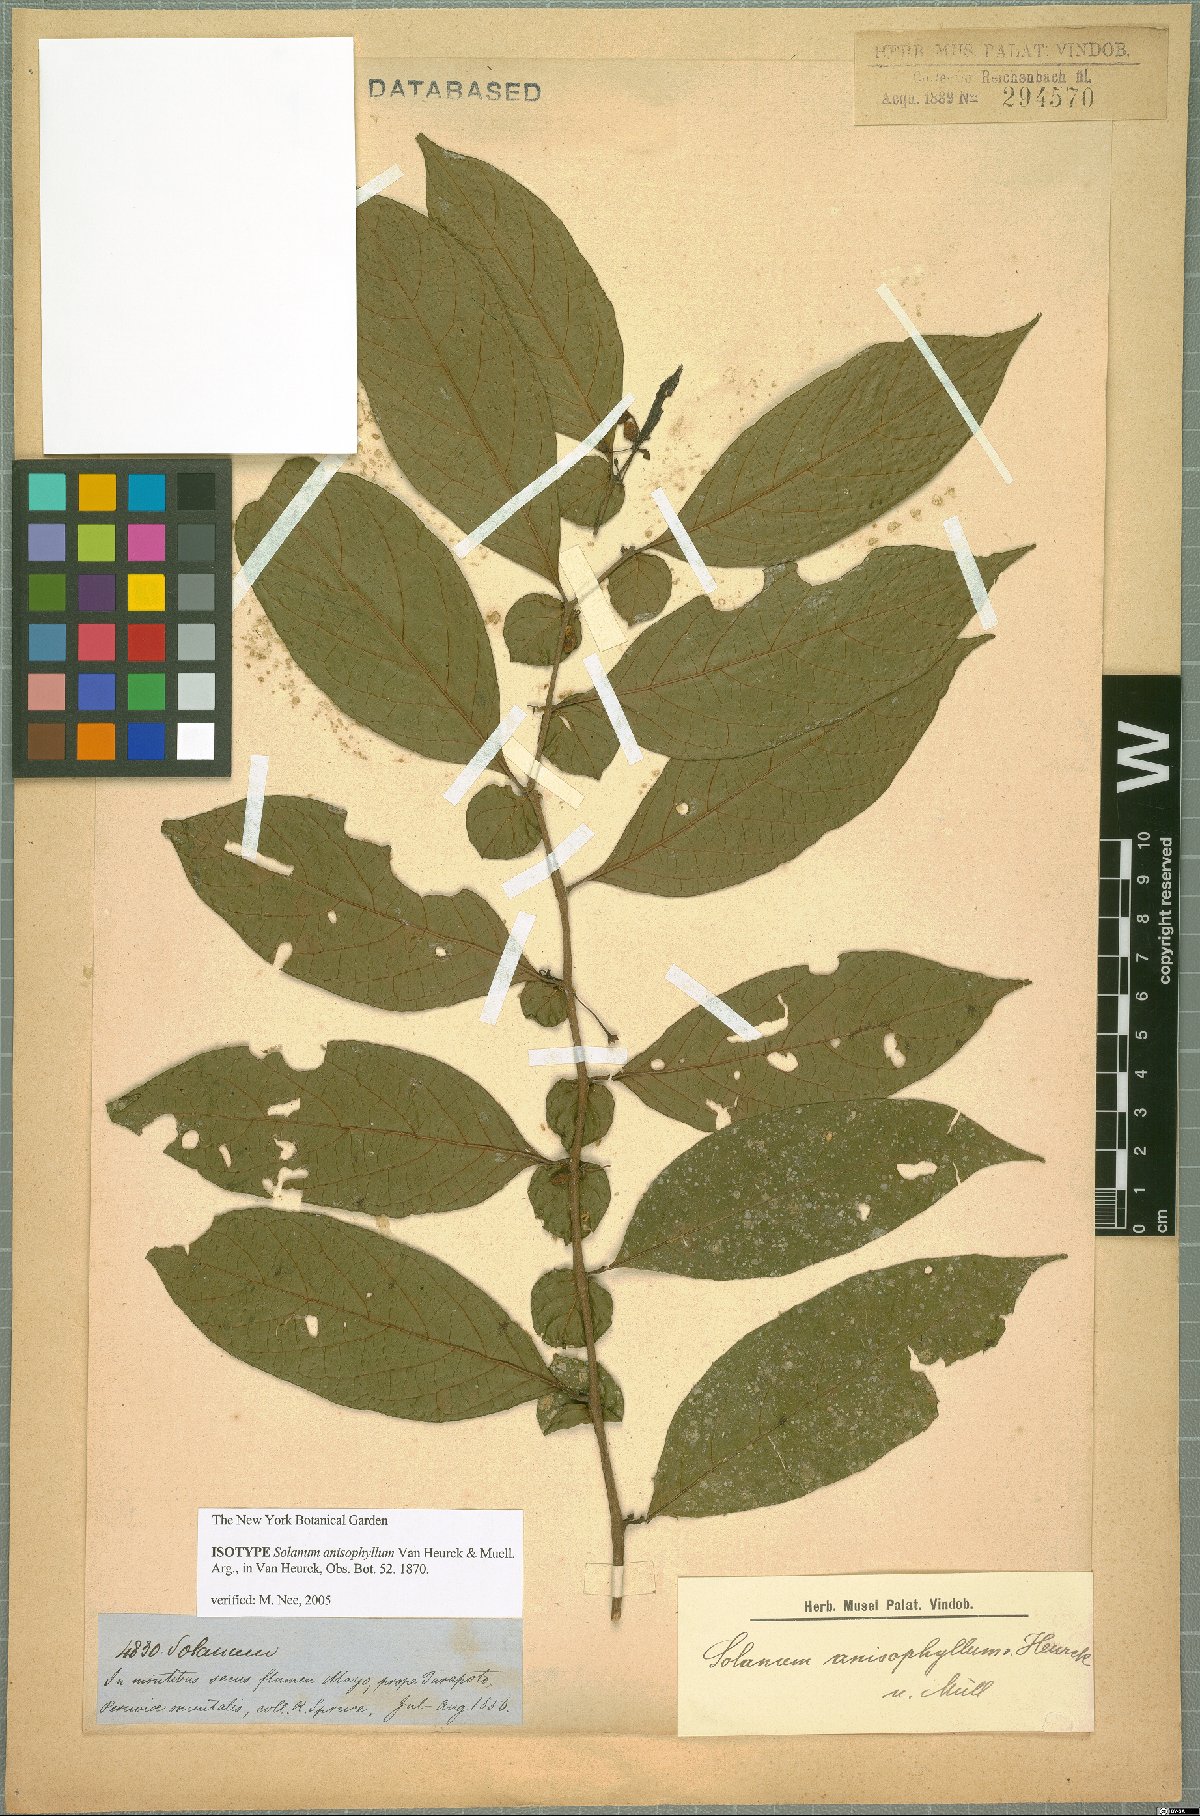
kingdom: Plantae
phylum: Tracheophyta
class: Magnoliopsida
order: Solanales
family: Solanaceae
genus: Solanum
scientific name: Solanum anisophyllum
